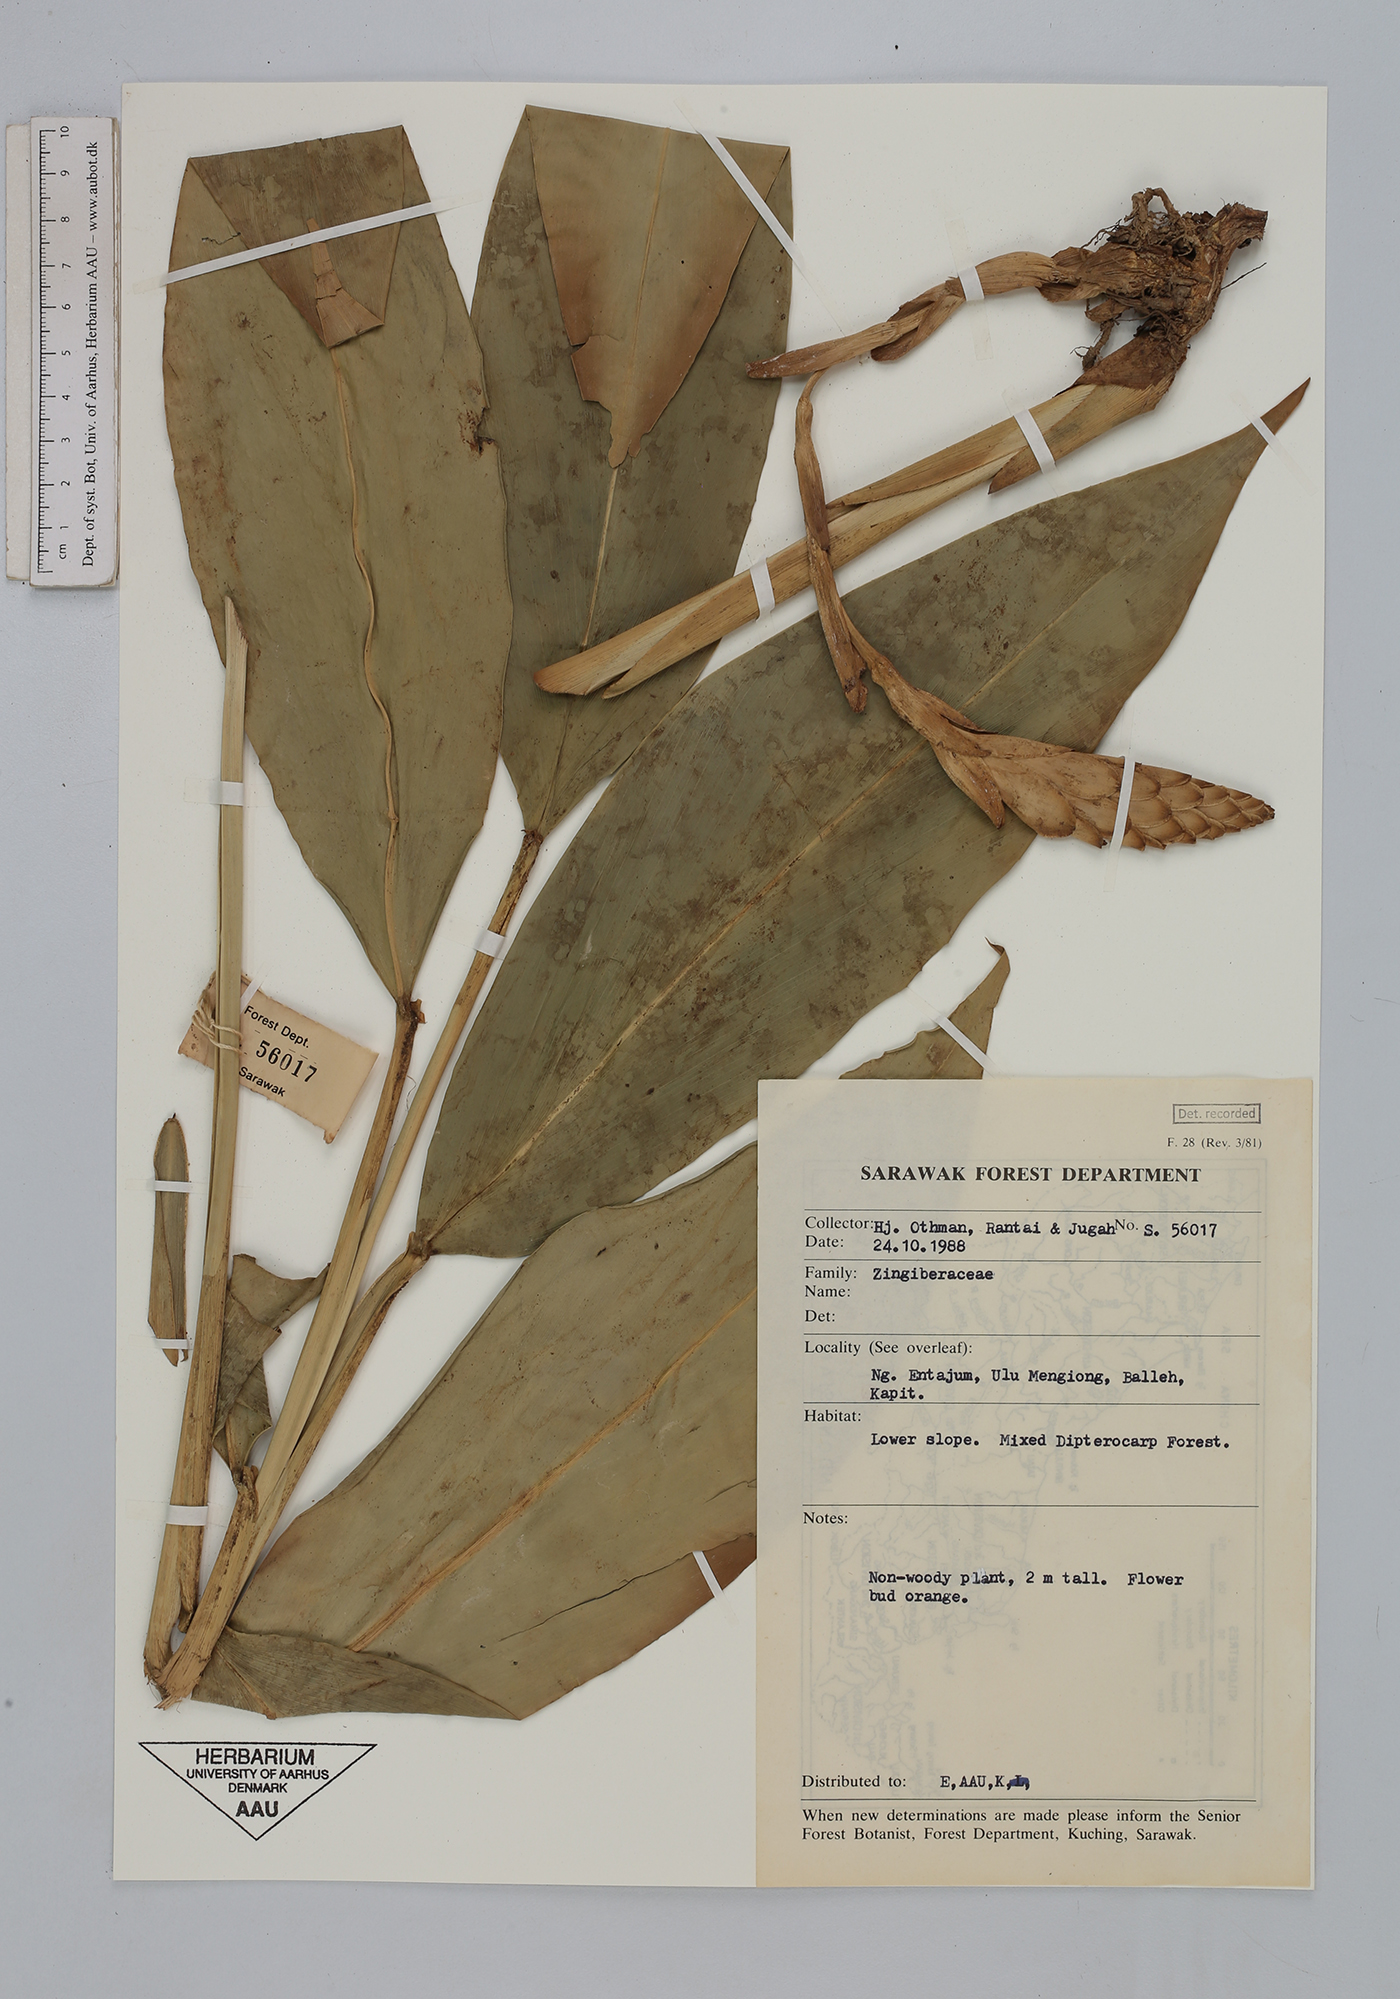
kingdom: Plantae
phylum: Tracheophyta
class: Liliopsida
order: Zingiberales
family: Zingiberaceae
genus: Zingiber
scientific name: Zingiber
